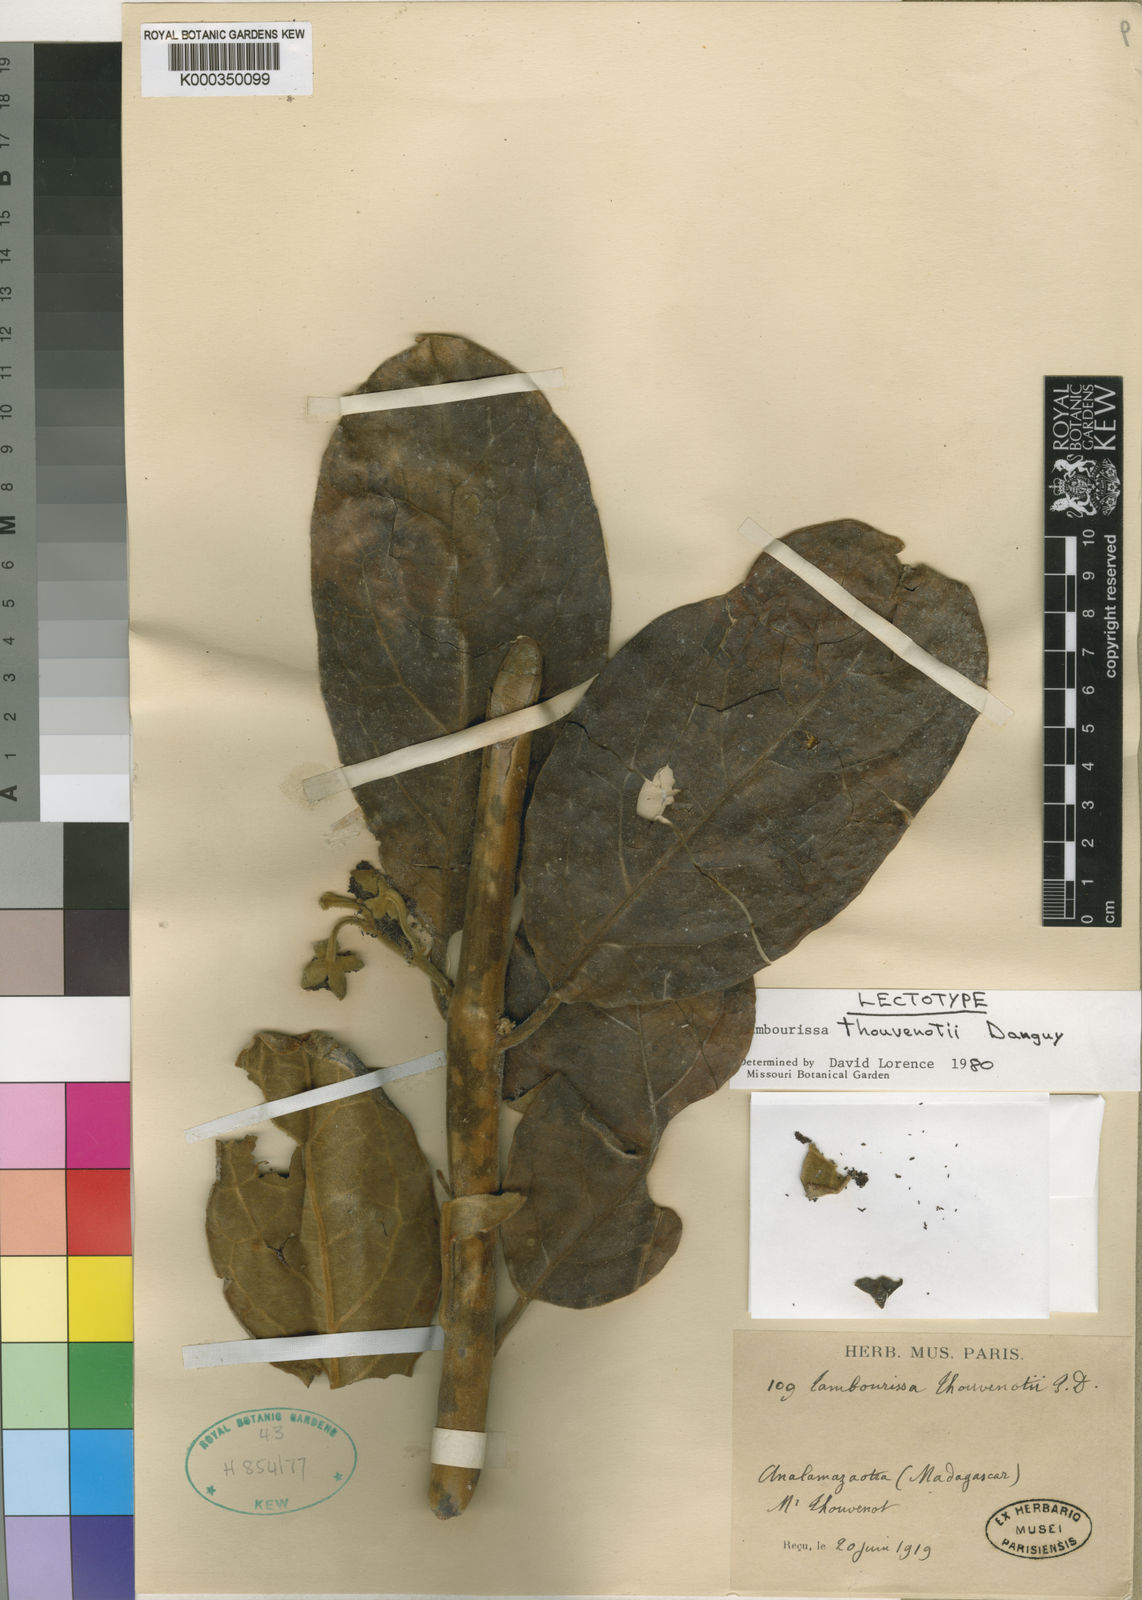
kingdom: Plantae
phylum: Tracheophyta
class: Magnoliopsida
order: Laurales
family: Monimiaceae
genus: Tambourissa
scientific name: Tambourissa thouvenotii
